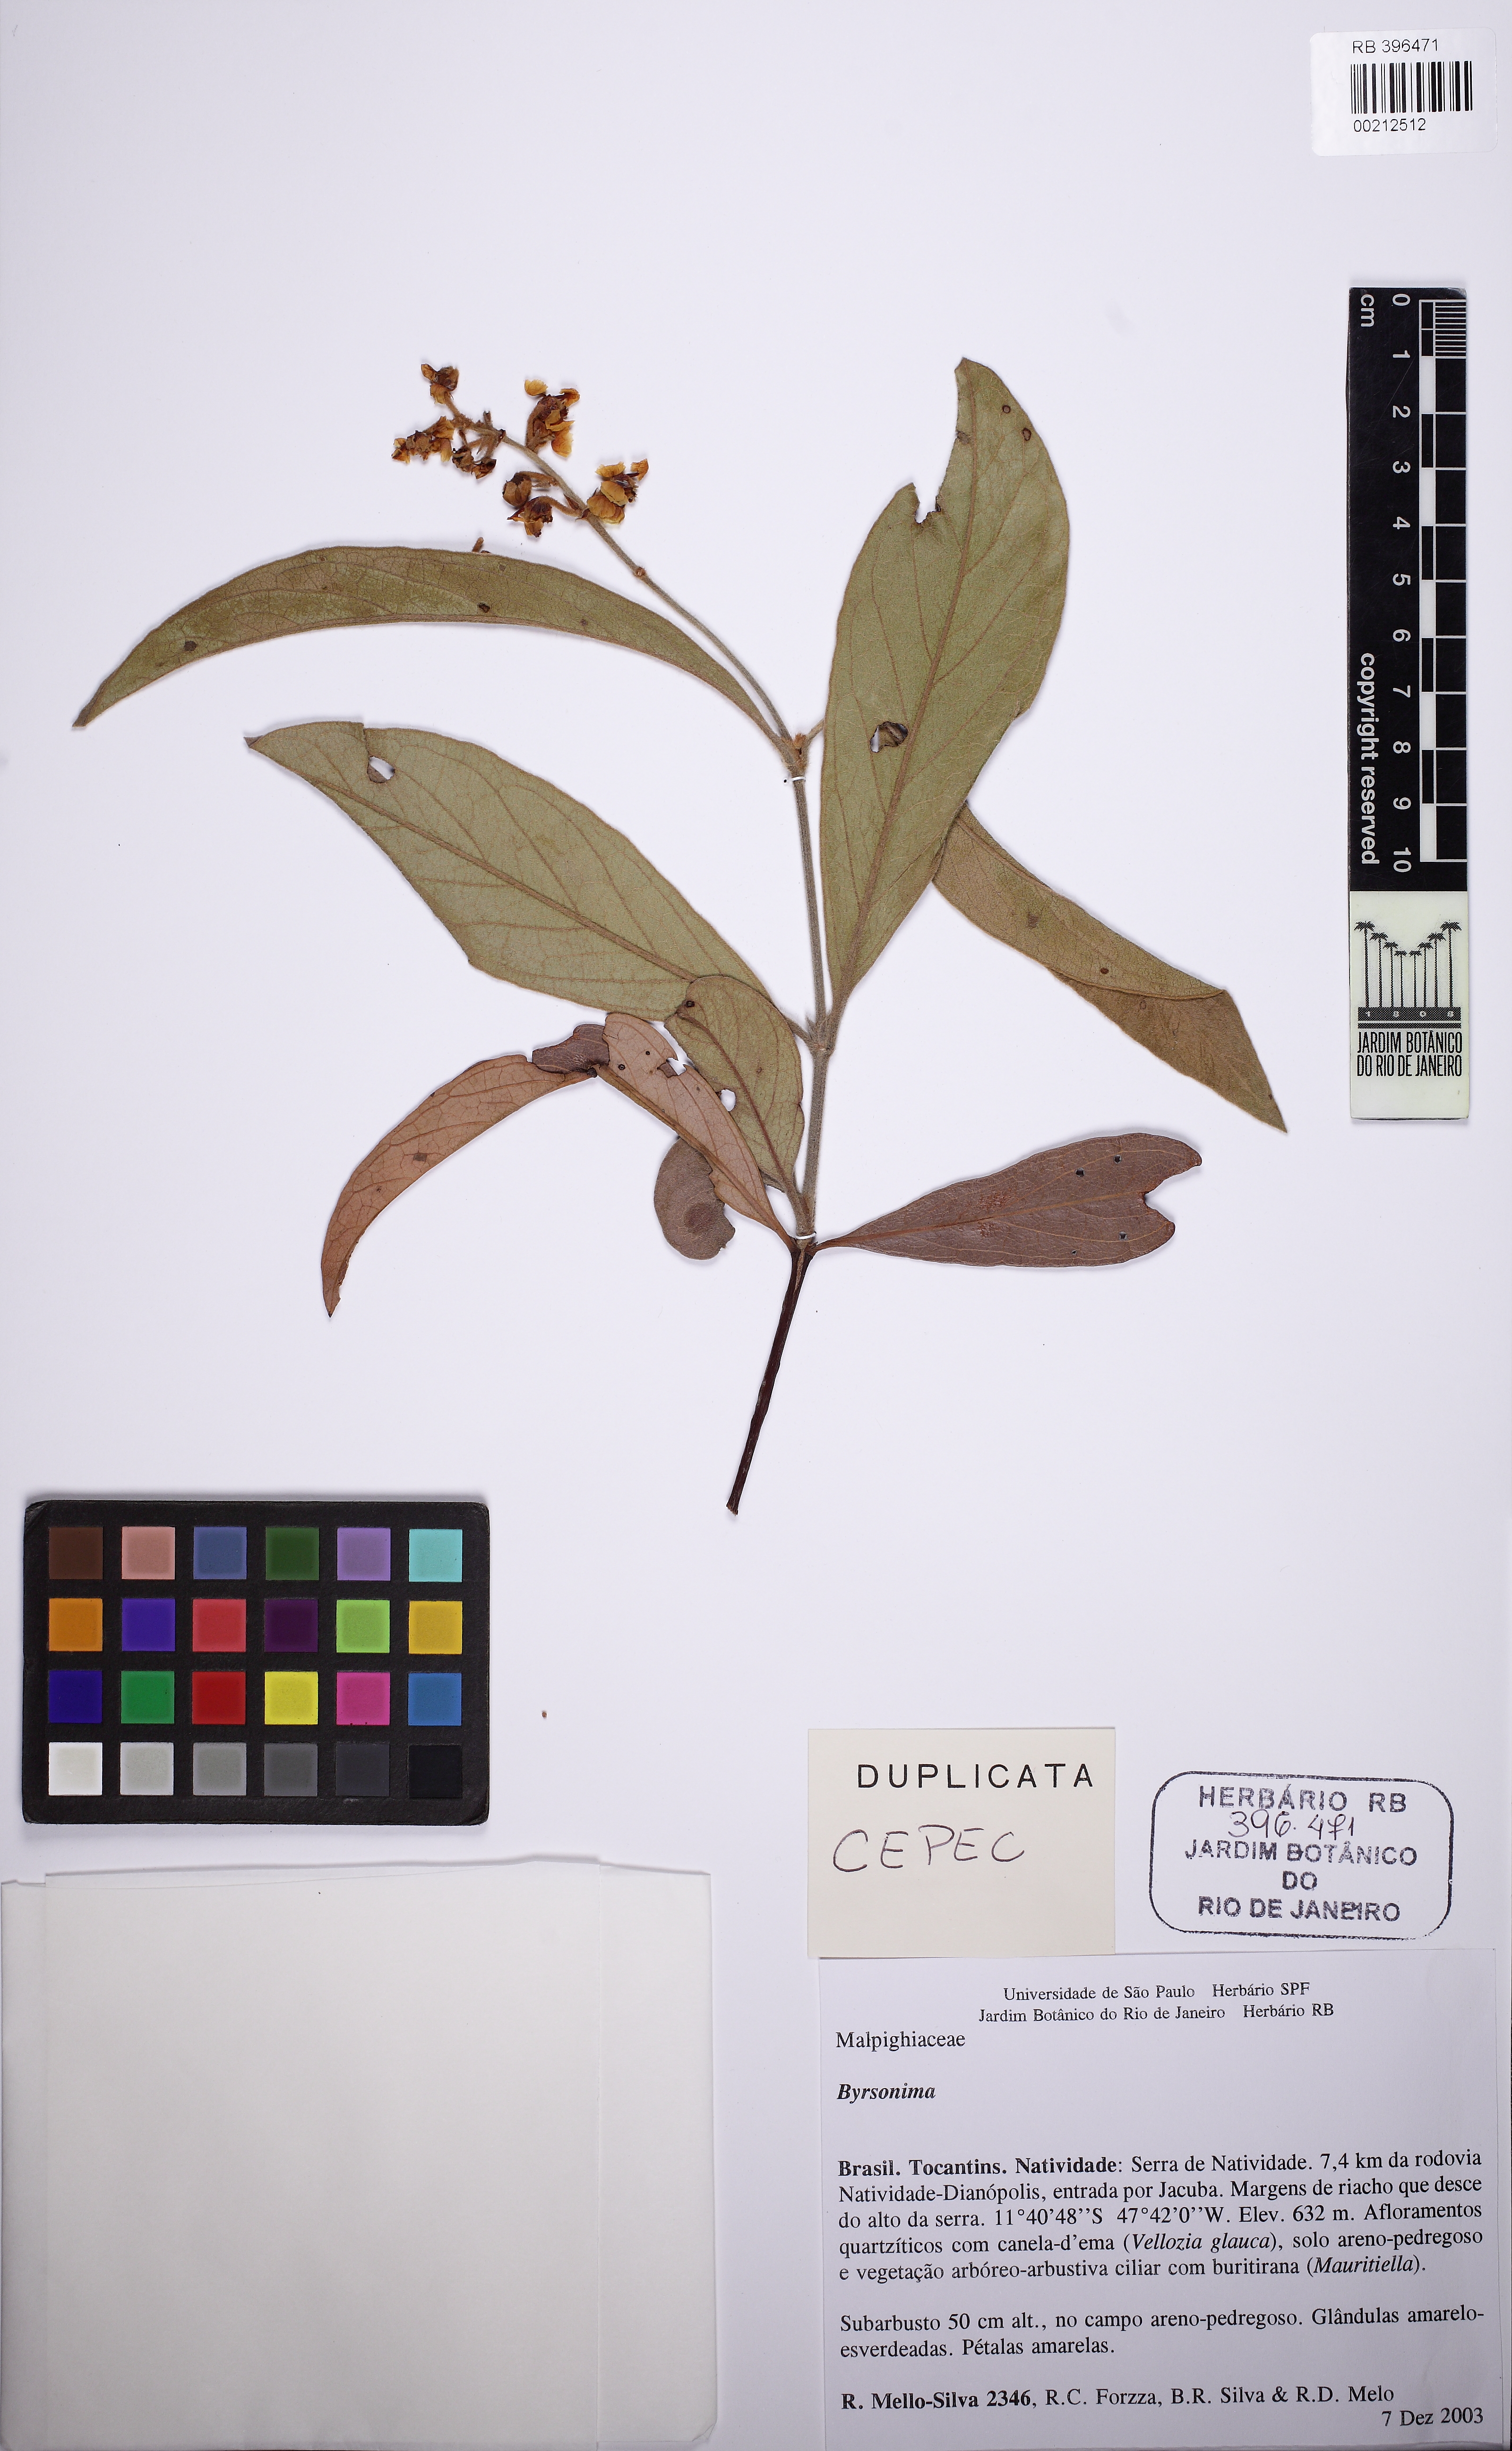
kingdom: Plantae
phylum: Tracheophyta
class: Magnoliopsida
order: Malpighiales
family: Malpighiaceae
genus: Byrsonima
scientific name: Byrsonima
